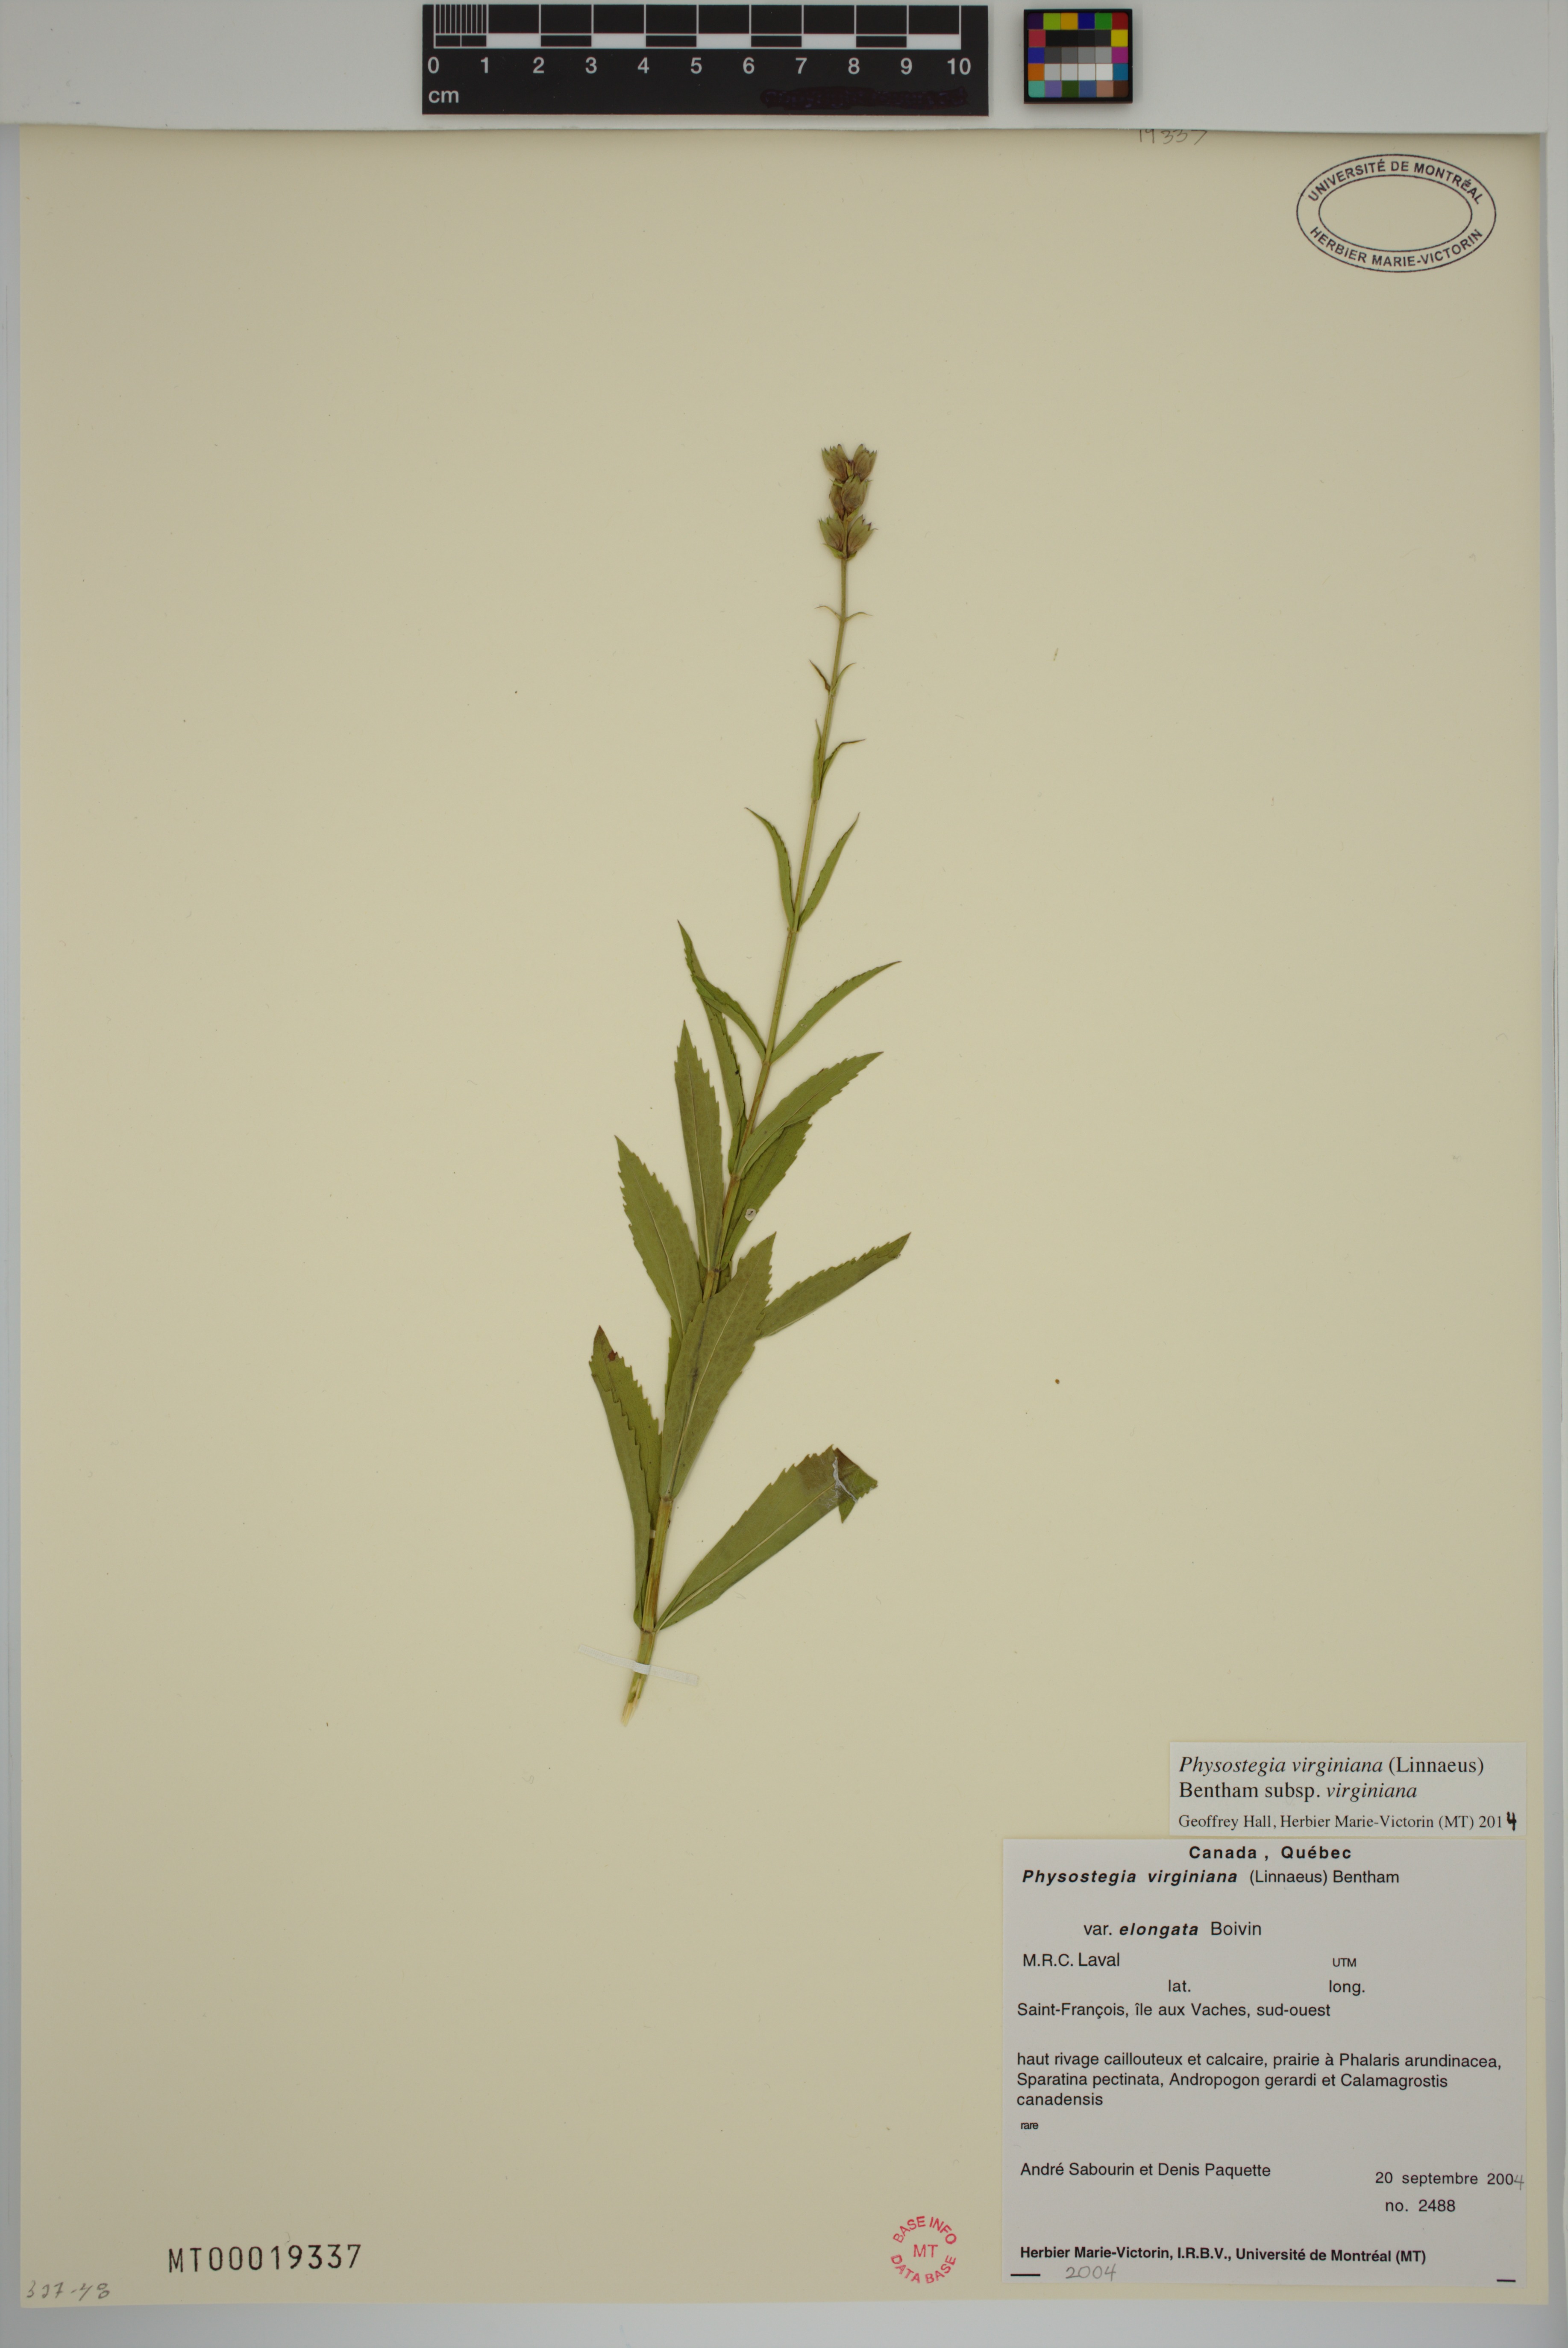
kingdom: Plantae
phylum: Tracheophyta
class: Magnoliopsida
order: Lamiales
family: Lamiaceae
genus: Physostegia
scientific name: Physostegia virginiana
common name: Obedient-plant
